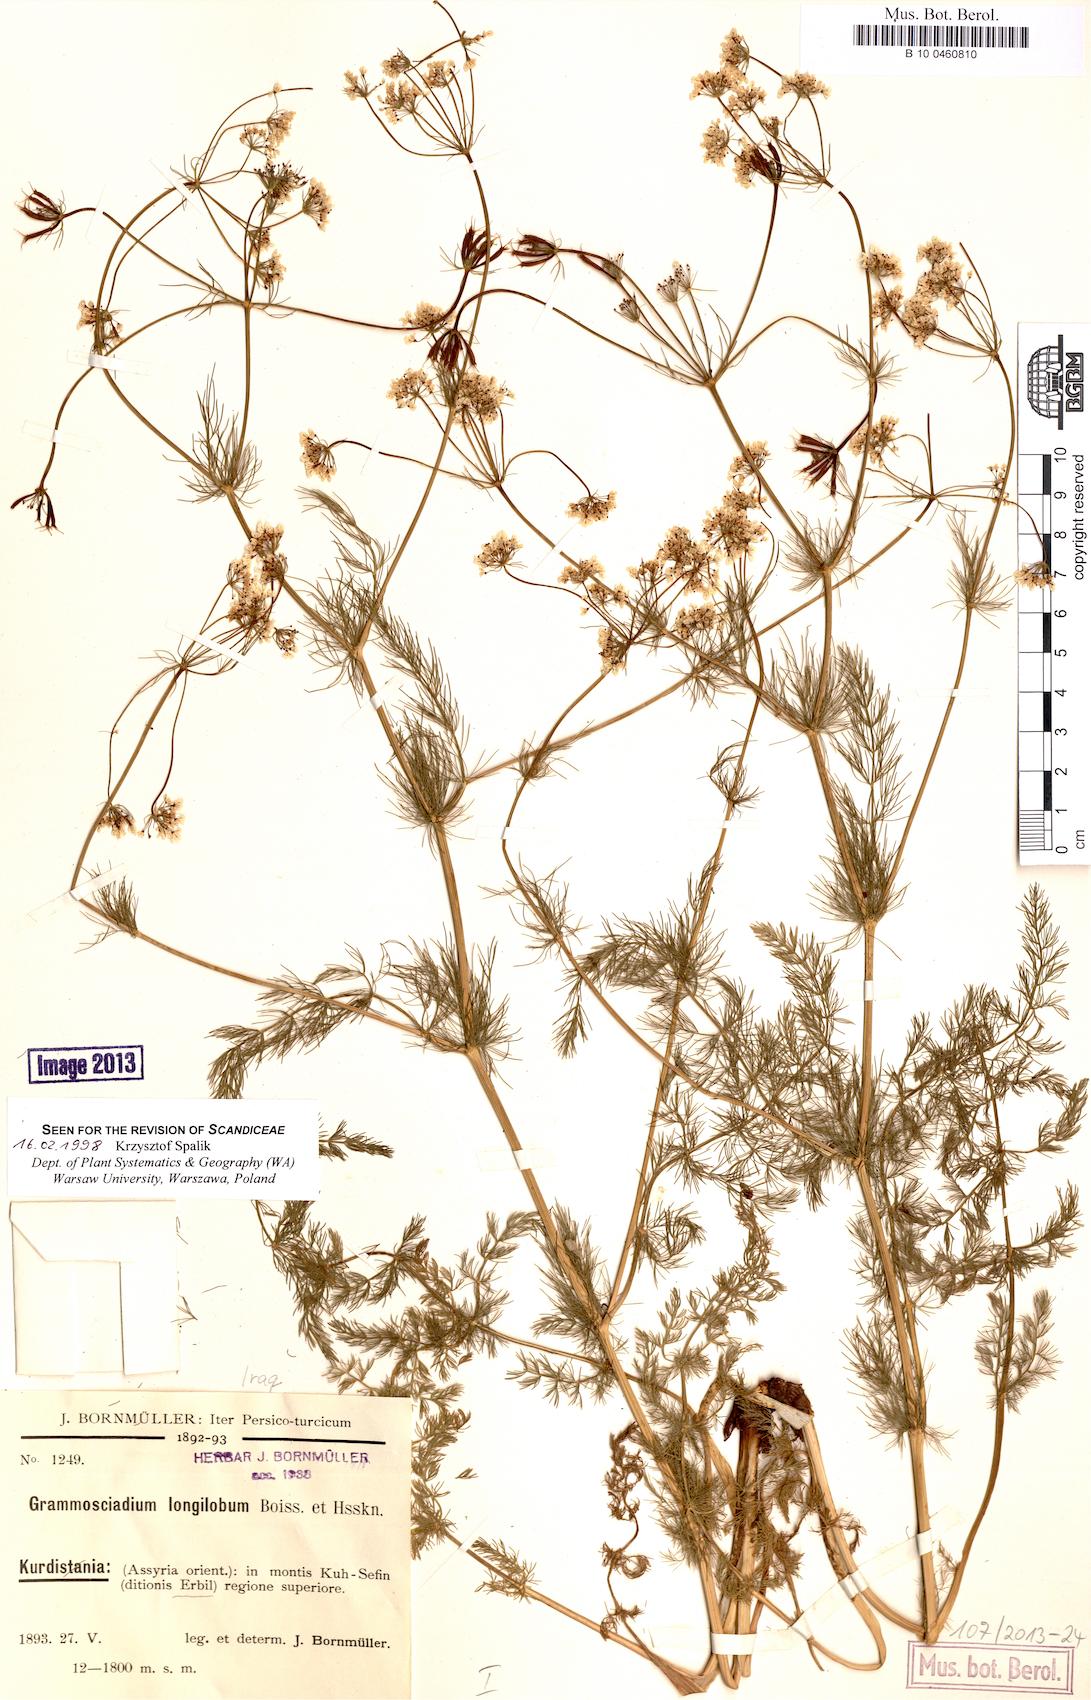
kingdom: Plantae
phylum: Tracheophyta
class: Magnoliopsida
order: Apiales
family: Apiaceae
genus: Grammosciadium
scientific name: Grammosciadium scabridum
